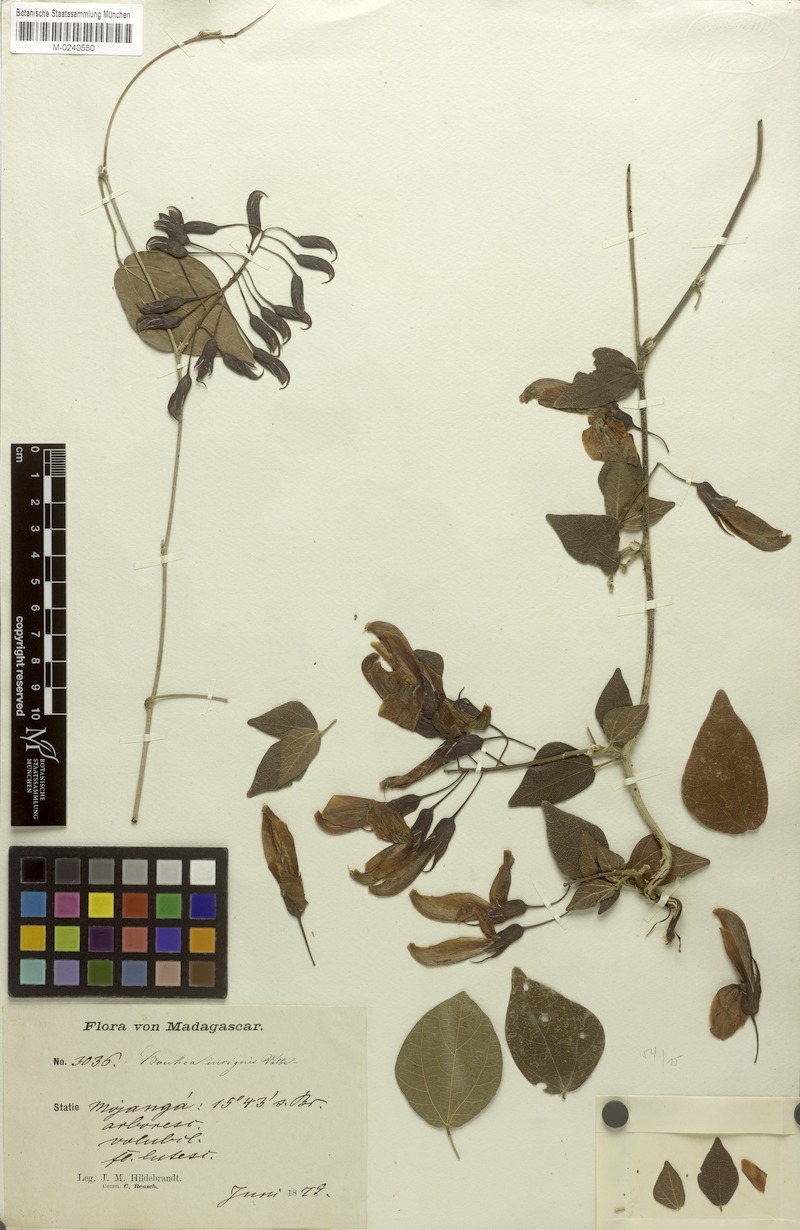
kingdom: Plantae
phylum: Tracheophyta
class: Magnoliopsida
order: Fabales
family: Fabaceae
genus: Rhynchosia
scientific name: Rhynchosia baukea
